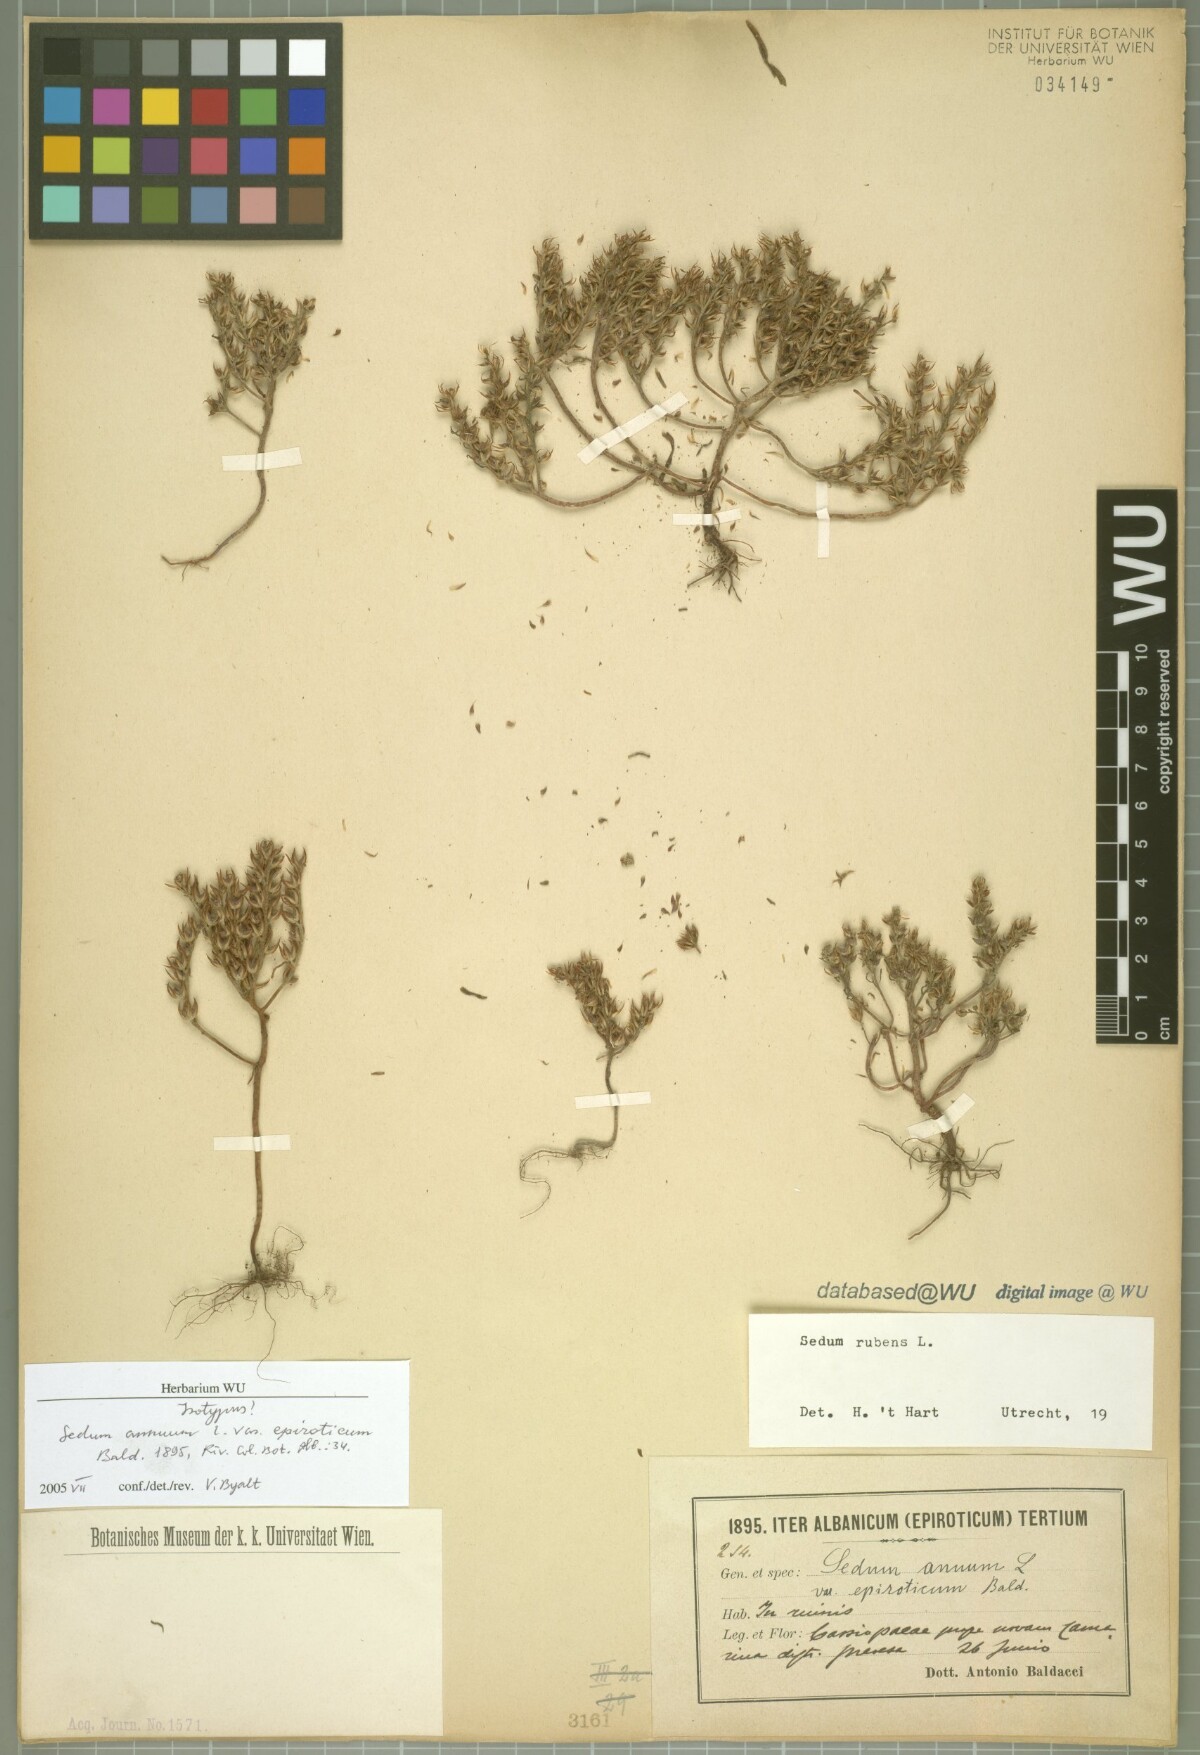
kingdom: Plantae
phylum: Tracheophyta
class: Magnoliopsida
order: Saxifragales
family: Crassulaceae
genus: Sedum
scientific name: Sedum eriocarpum
